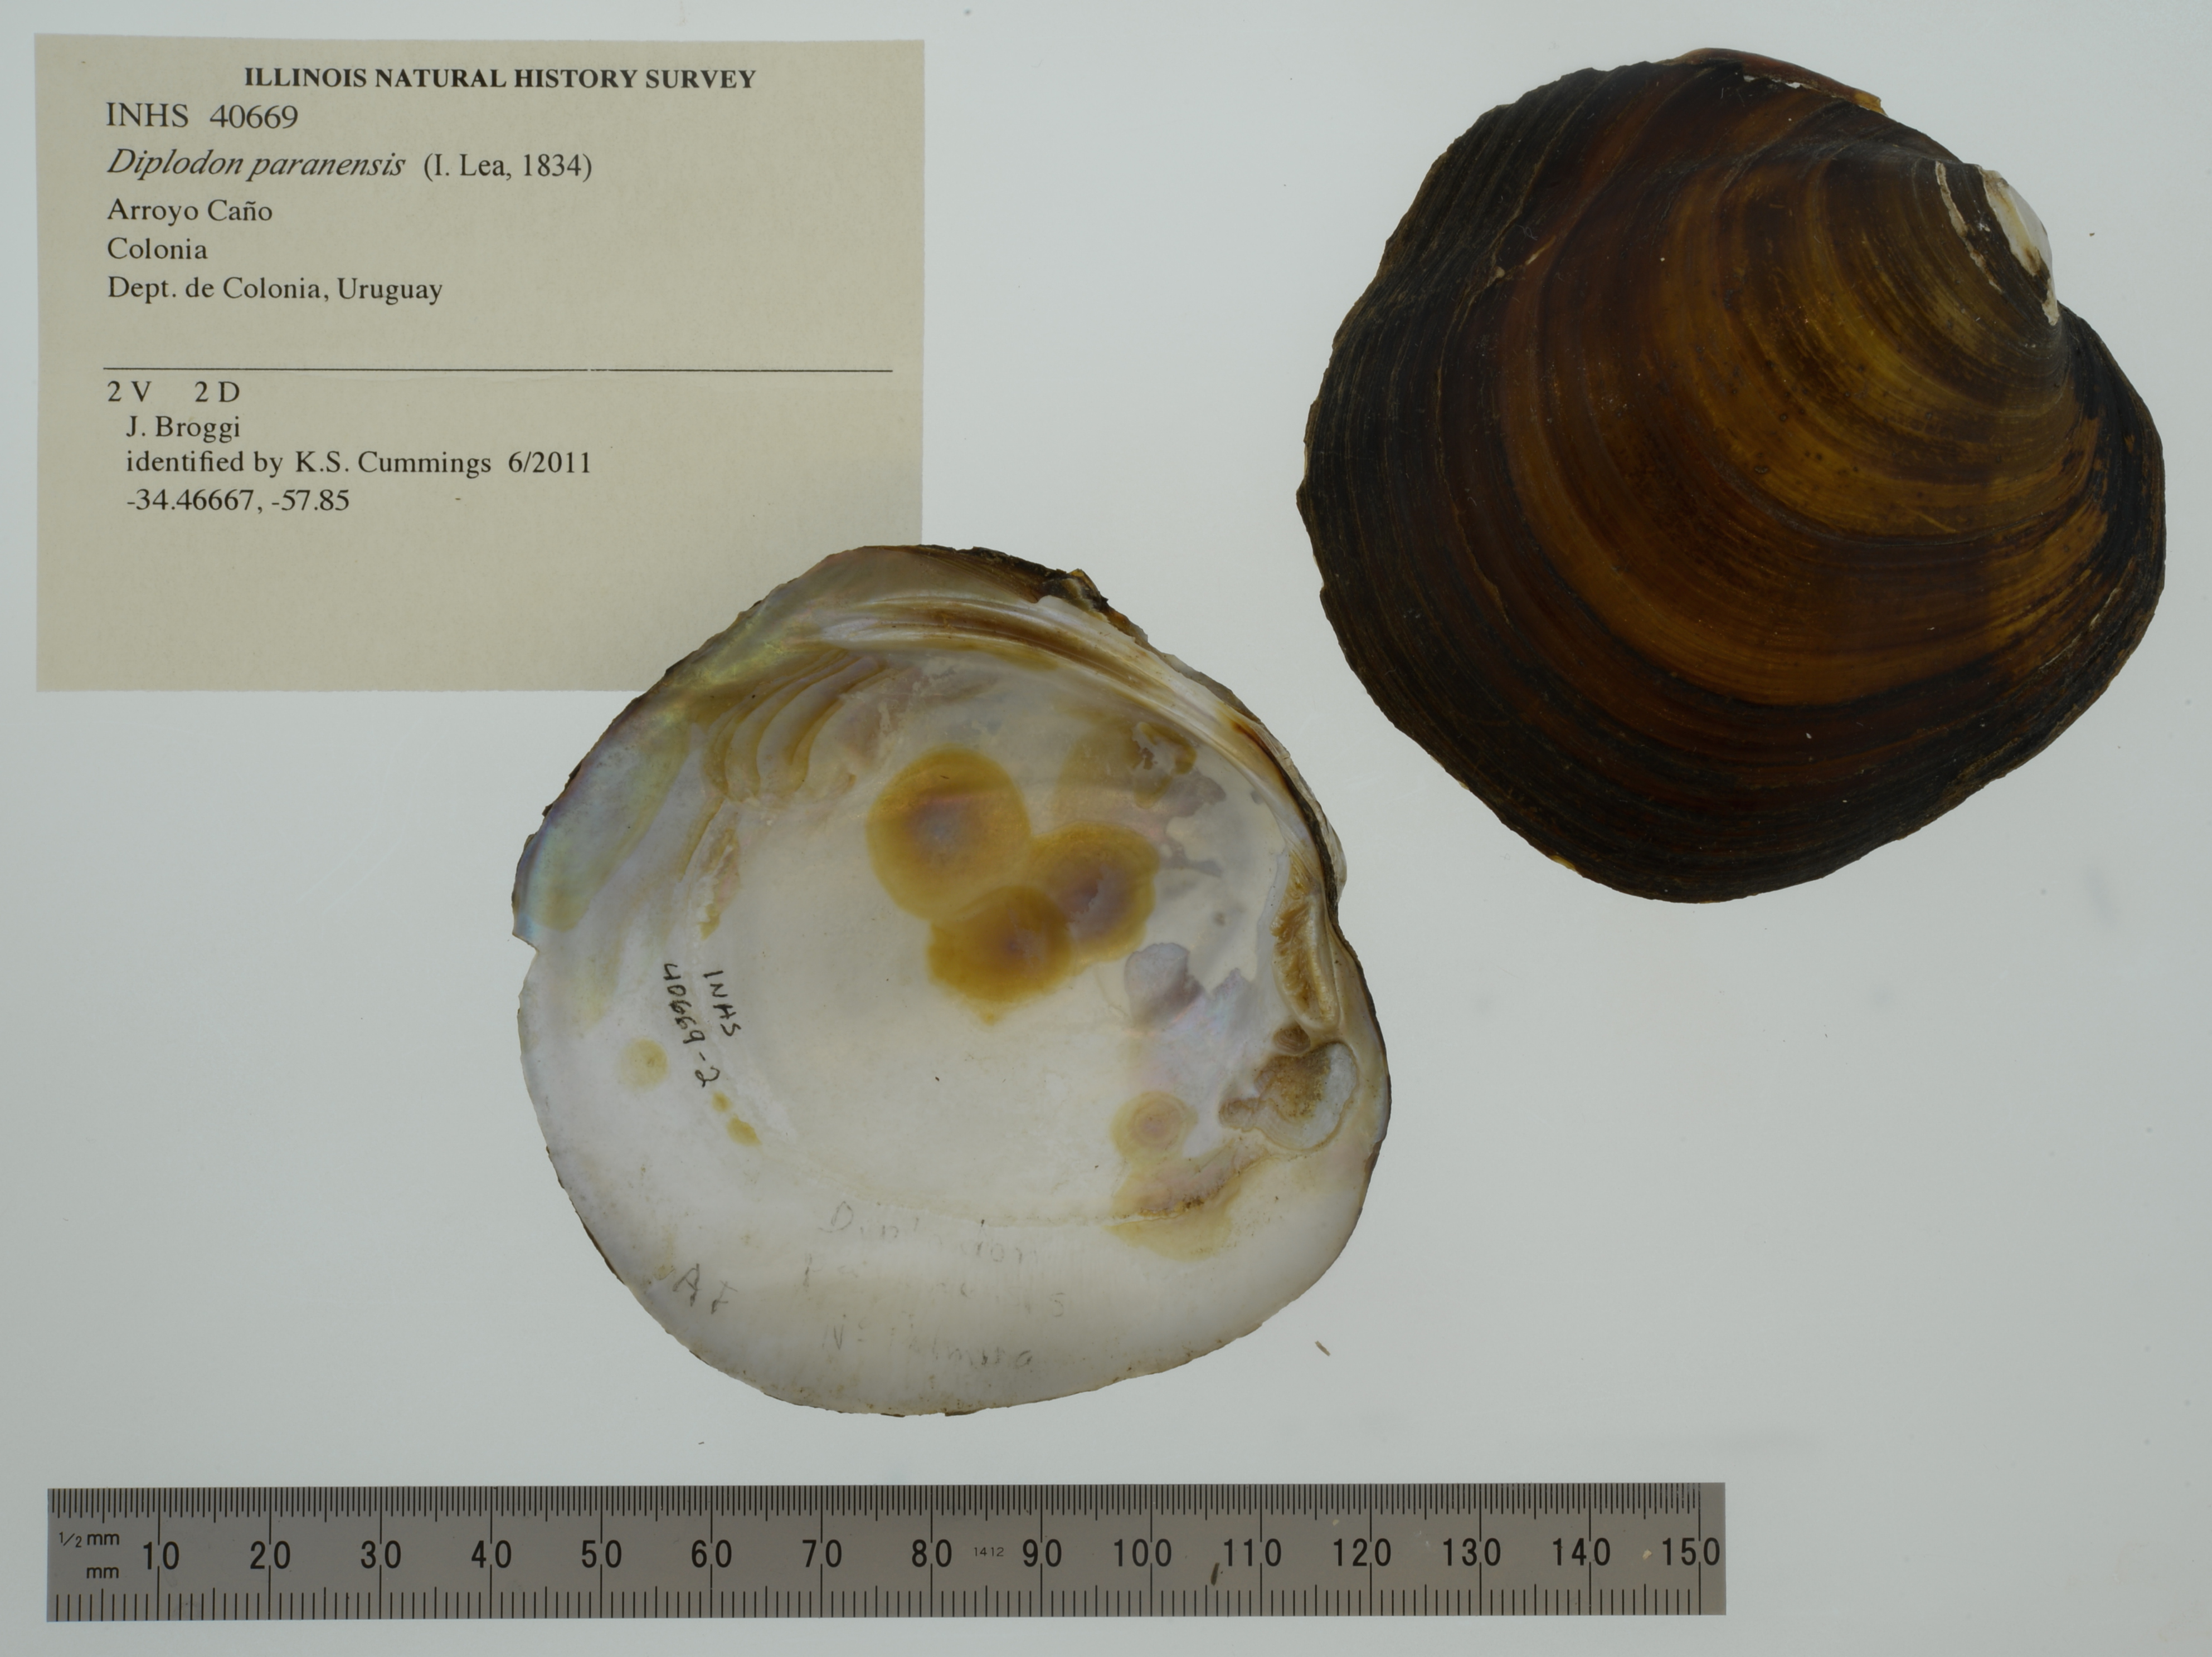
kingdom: Animalia
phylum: Mollusca
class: Bivalvia
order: Unionida
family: Hyriidae
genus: Rhipidodonta
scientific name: Rhipidodonta paranensis
